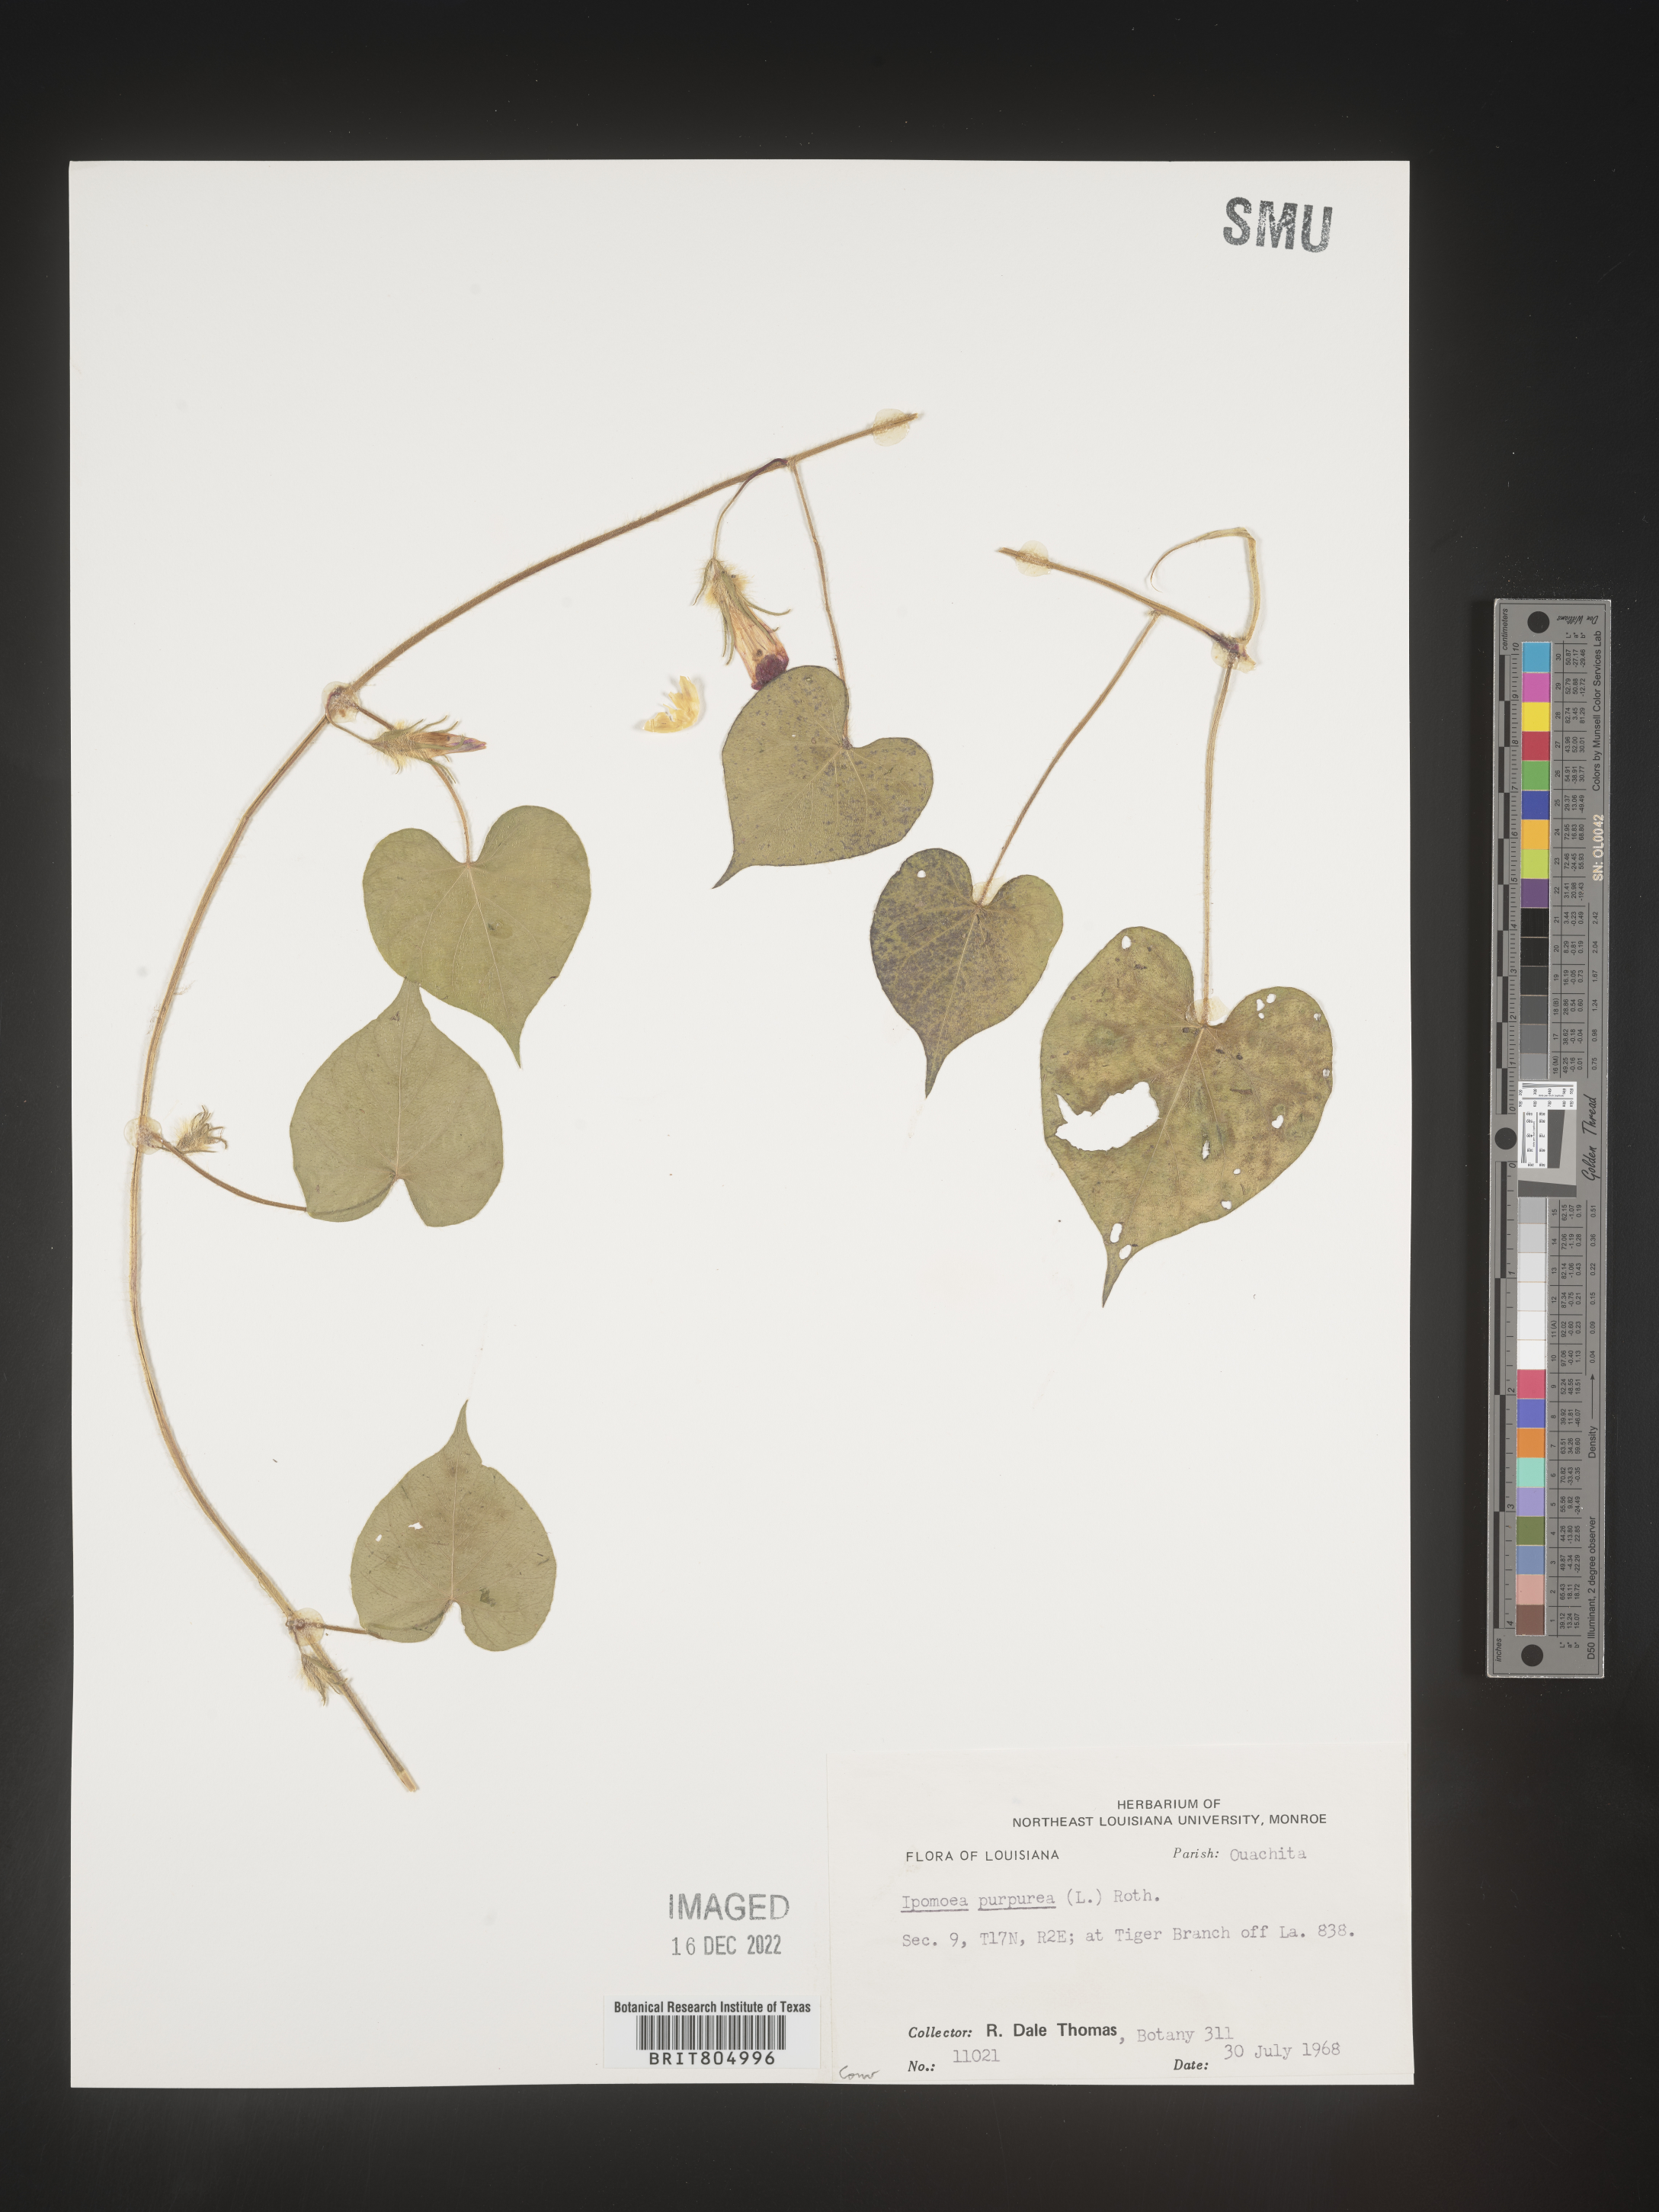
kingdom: Plantae
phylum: Tracheophyta
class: Magnoliopsida
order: Solanales
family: Convolvulaceae
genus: Ipomoea
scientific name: Ipomoea purpurea
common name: Common morning-glory
